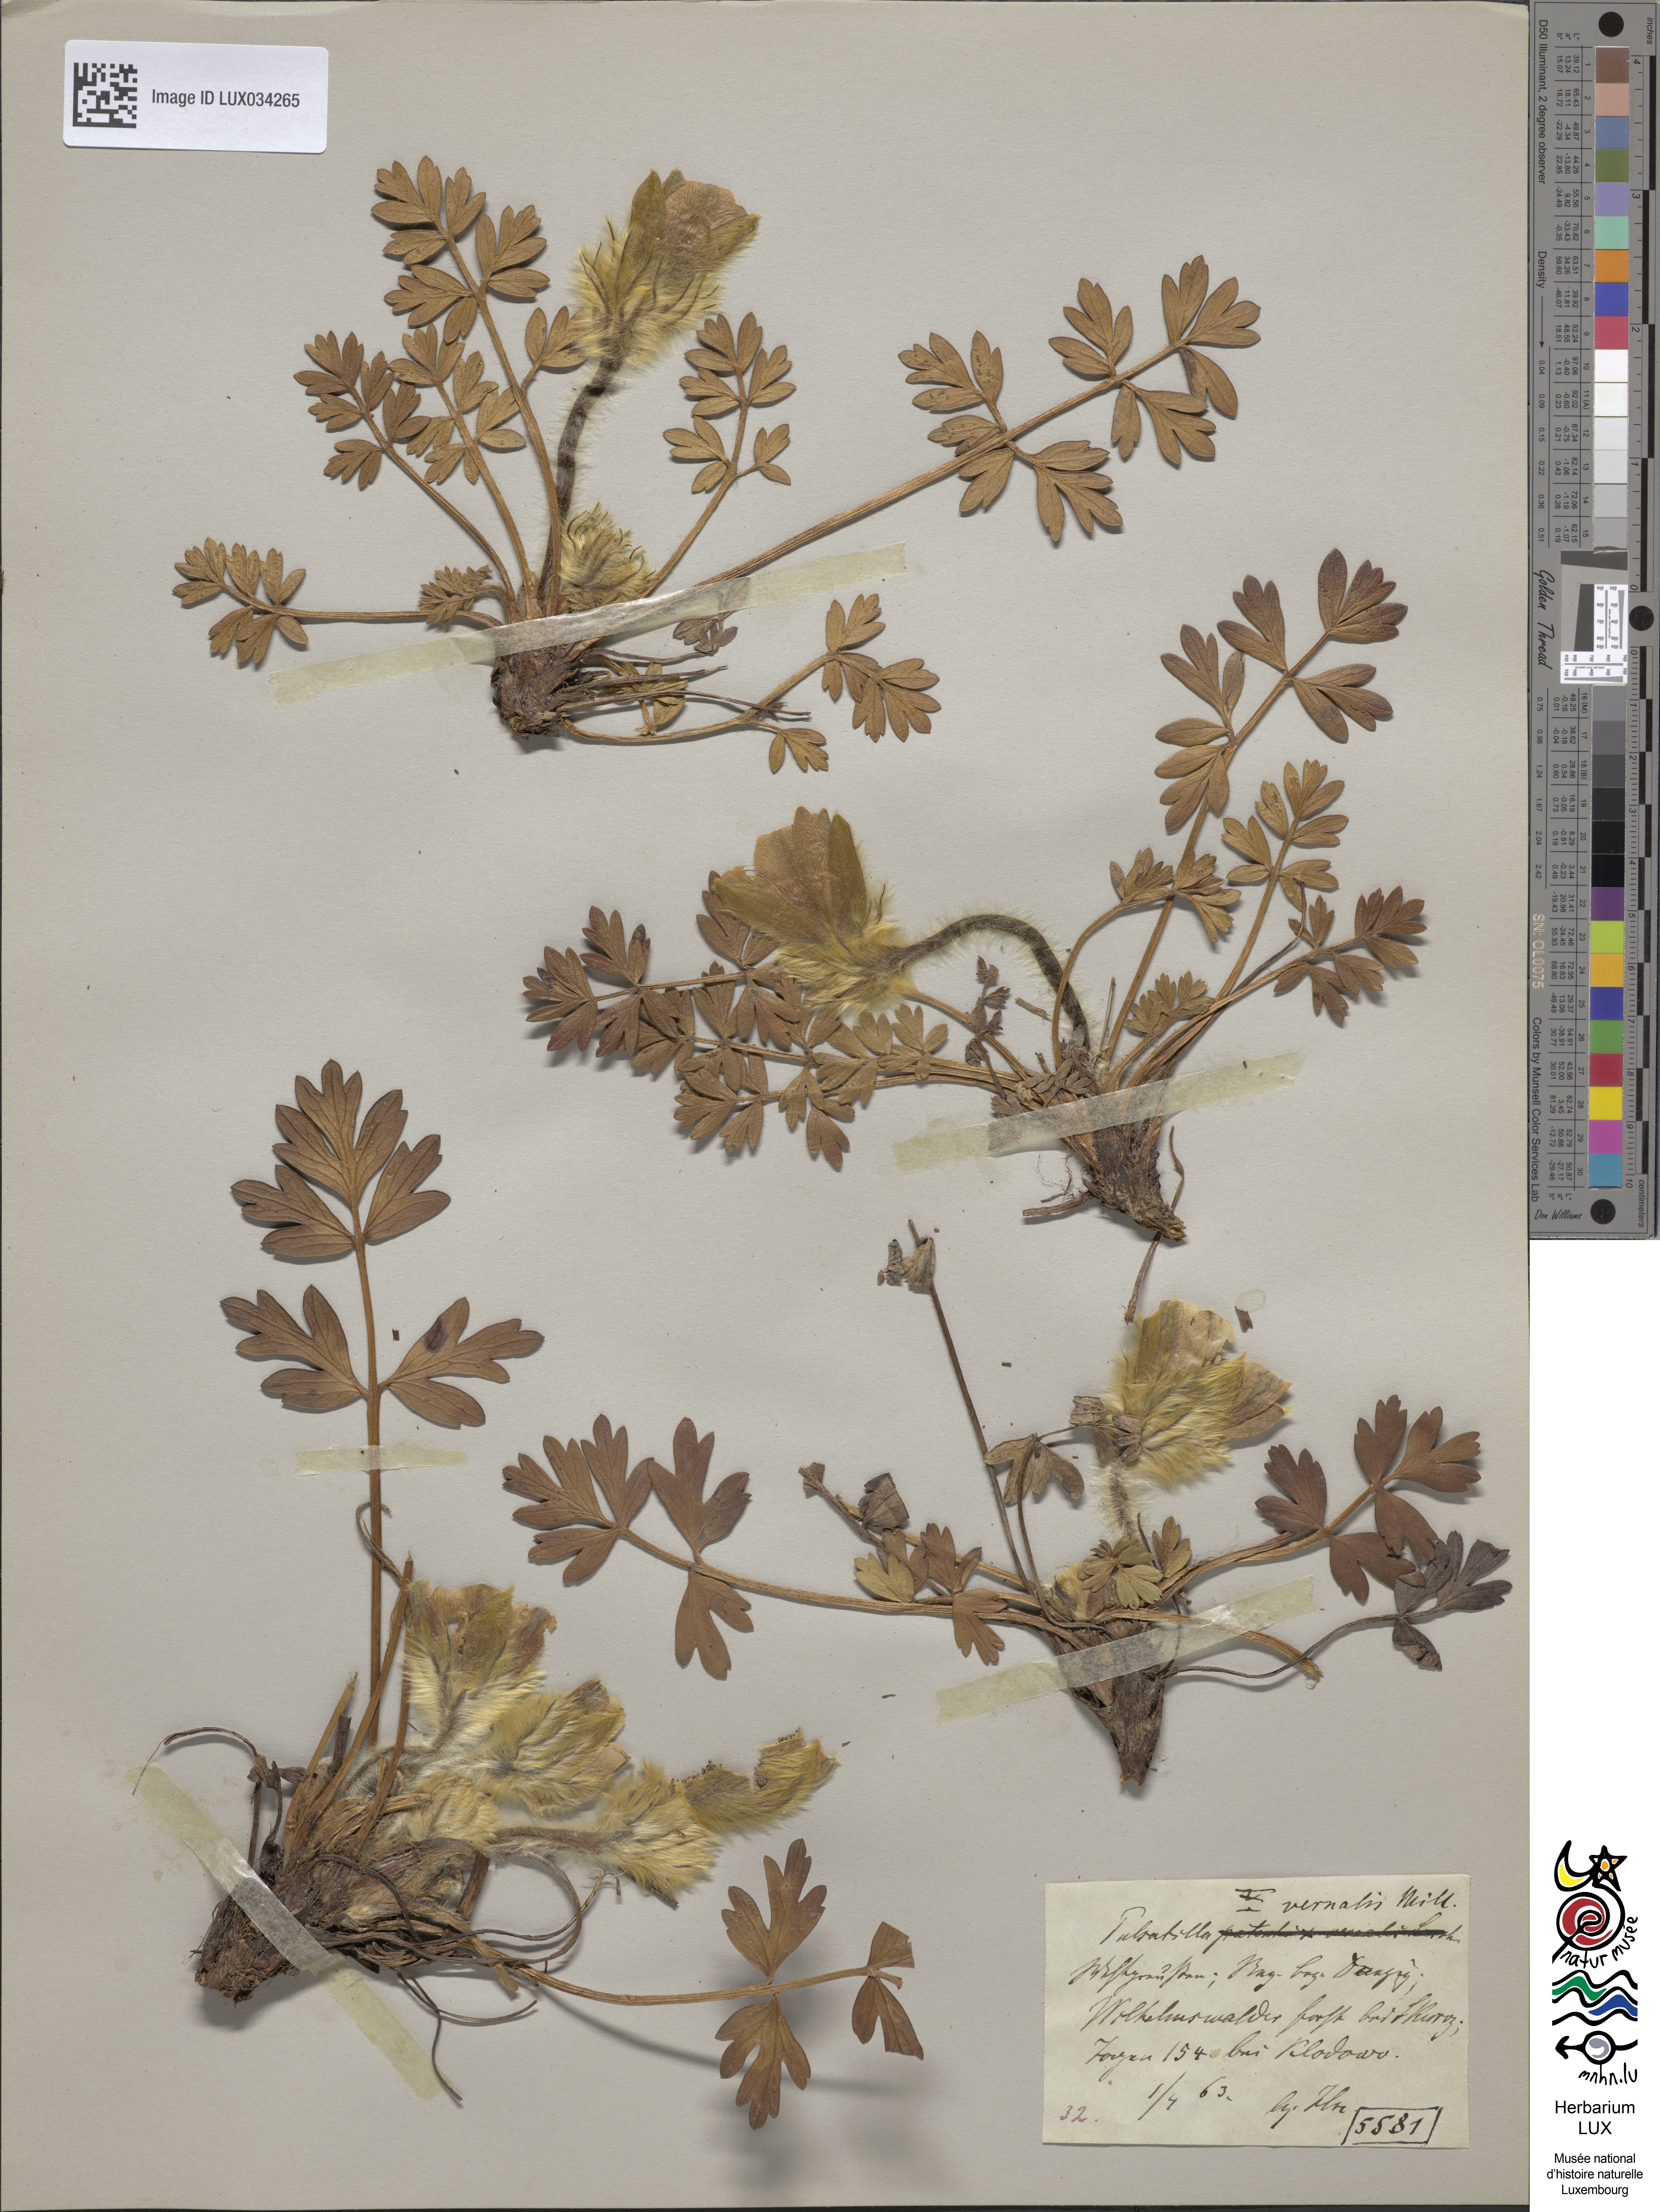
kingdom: Plantae
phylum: Tracheophyta
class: Magnoliopsida
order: Ranunculales
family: Ranunculaceae
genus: Pulsatilla
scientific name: Pulsatilla vernalis
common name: Spring pasque flower
